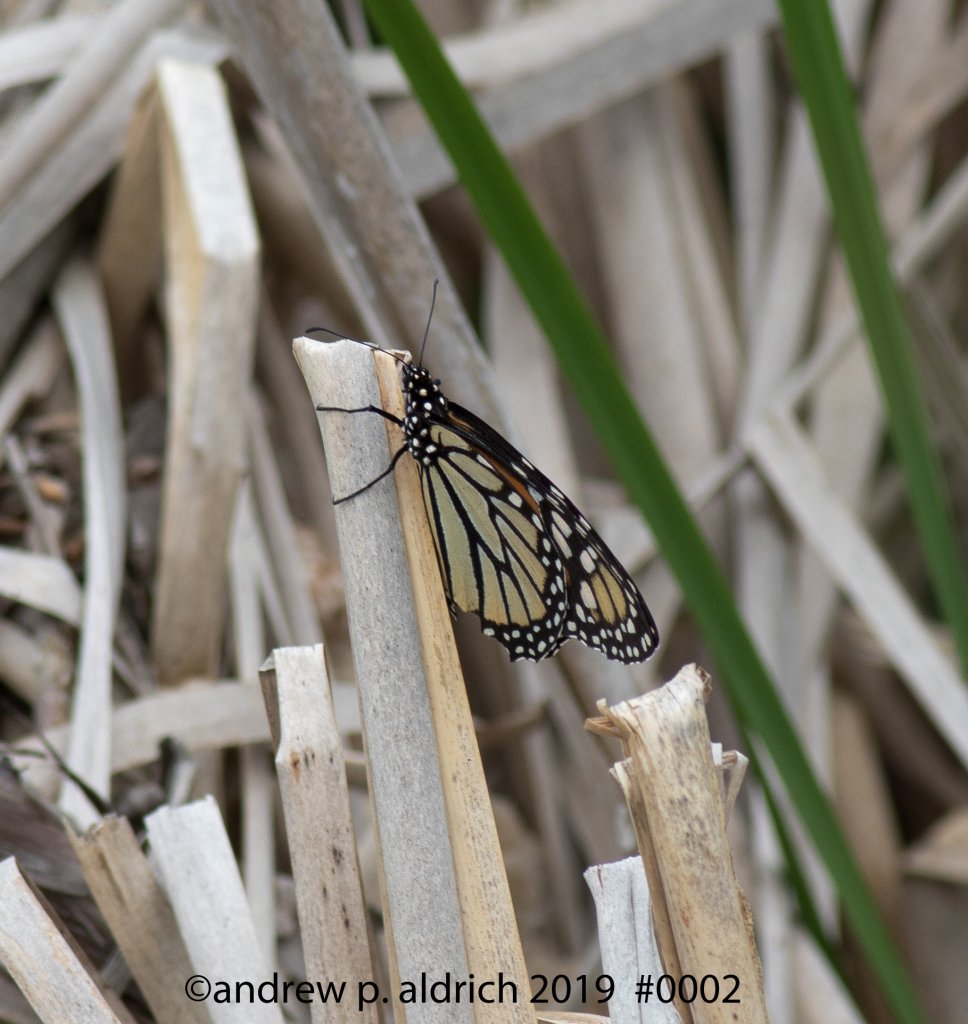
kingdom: Animalia
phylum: Arthropoda
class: Insecta
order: Lepidoptera
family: Nymphalidae
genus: Danaus
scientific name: Danaus plexippus
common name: Monarch
